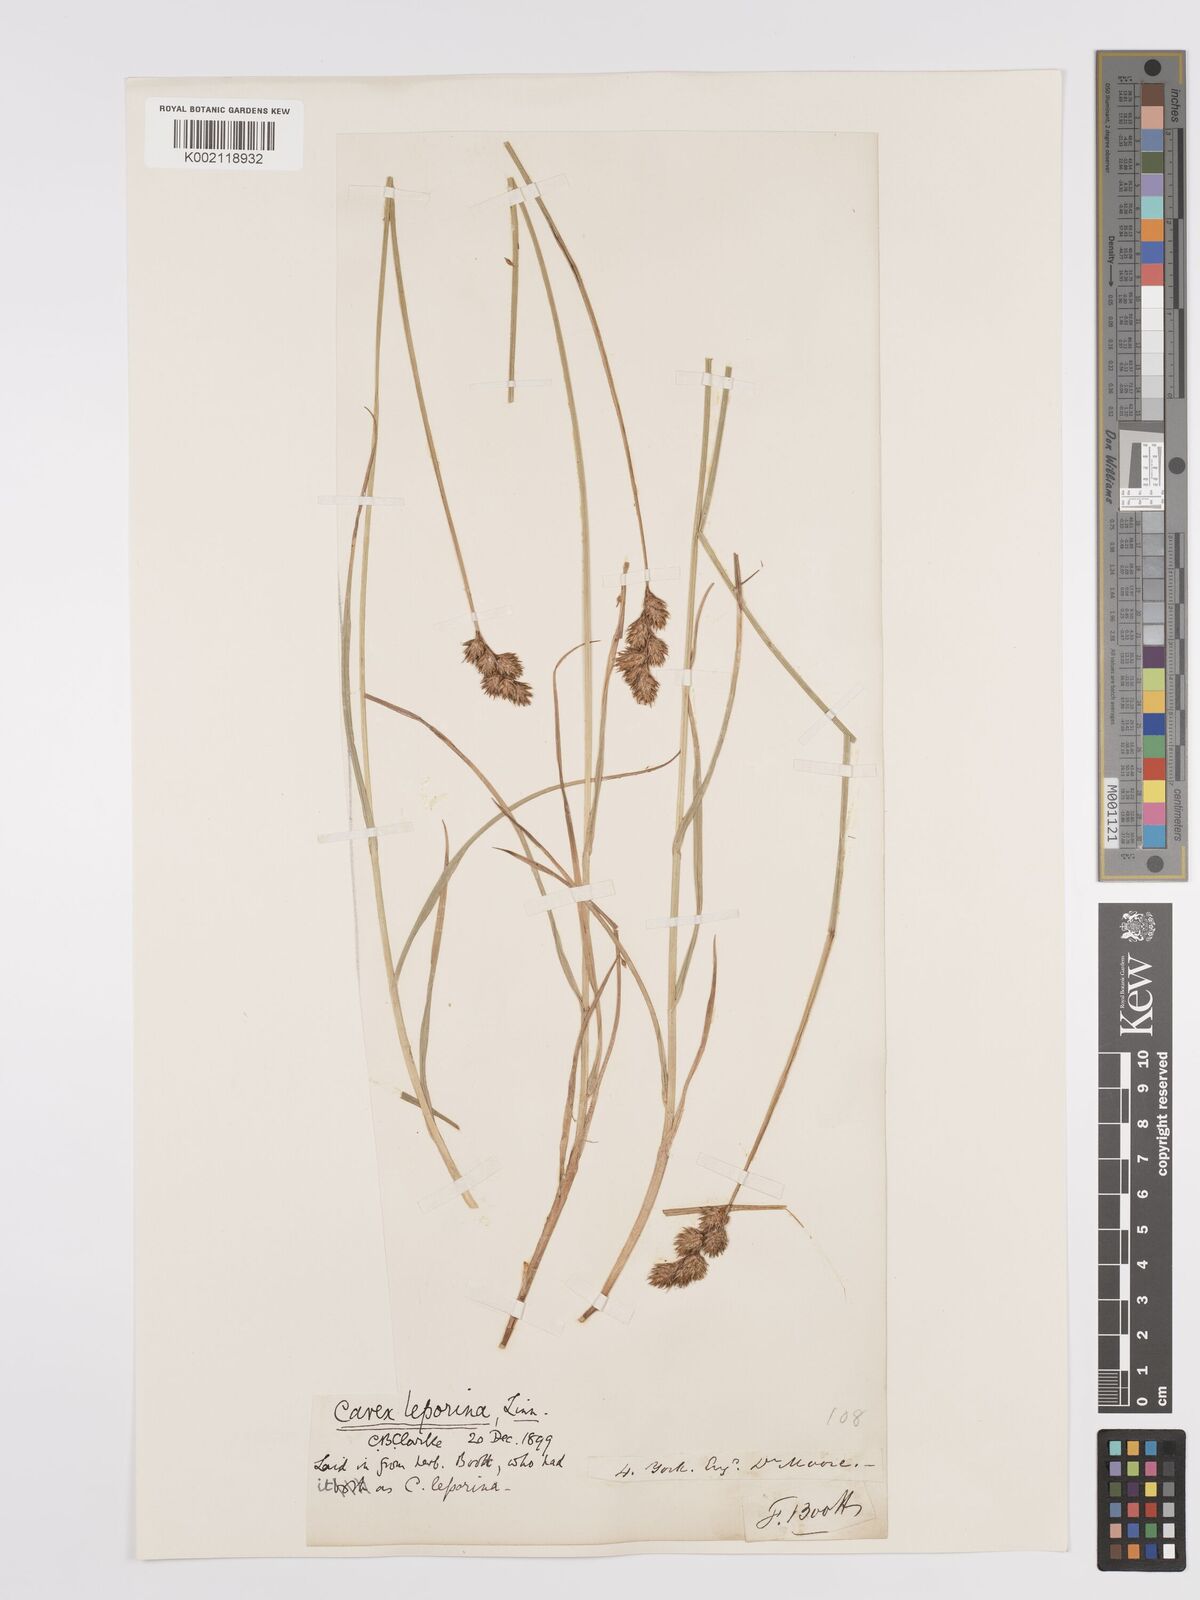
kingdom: Plantae
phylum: Tracheophyta
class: Liliopsida
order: Poales
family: Cyperaceae
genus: Carex
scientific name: Carex leporina
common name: Oval sedge
